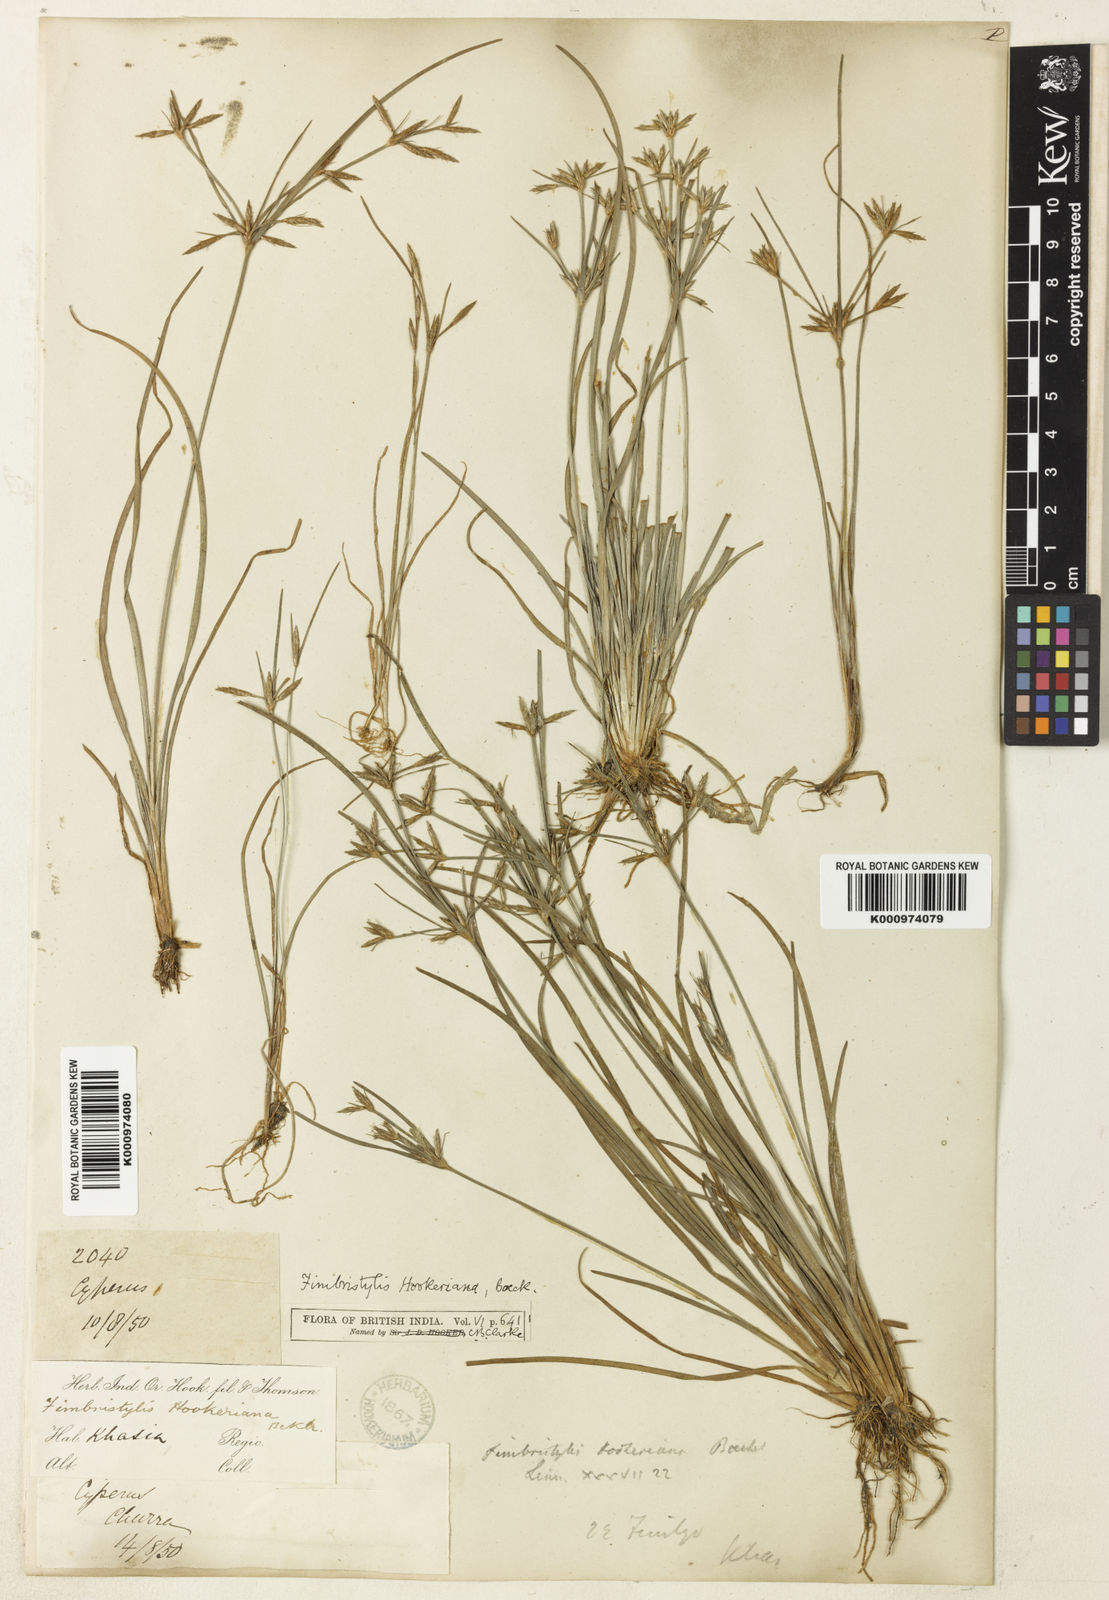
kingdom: Plantae
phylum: Tracheophyta
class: Liliopsida
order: Poales
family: Cyperaceae
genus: Fimbristylis
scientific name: Fimbristylis hookeriana
